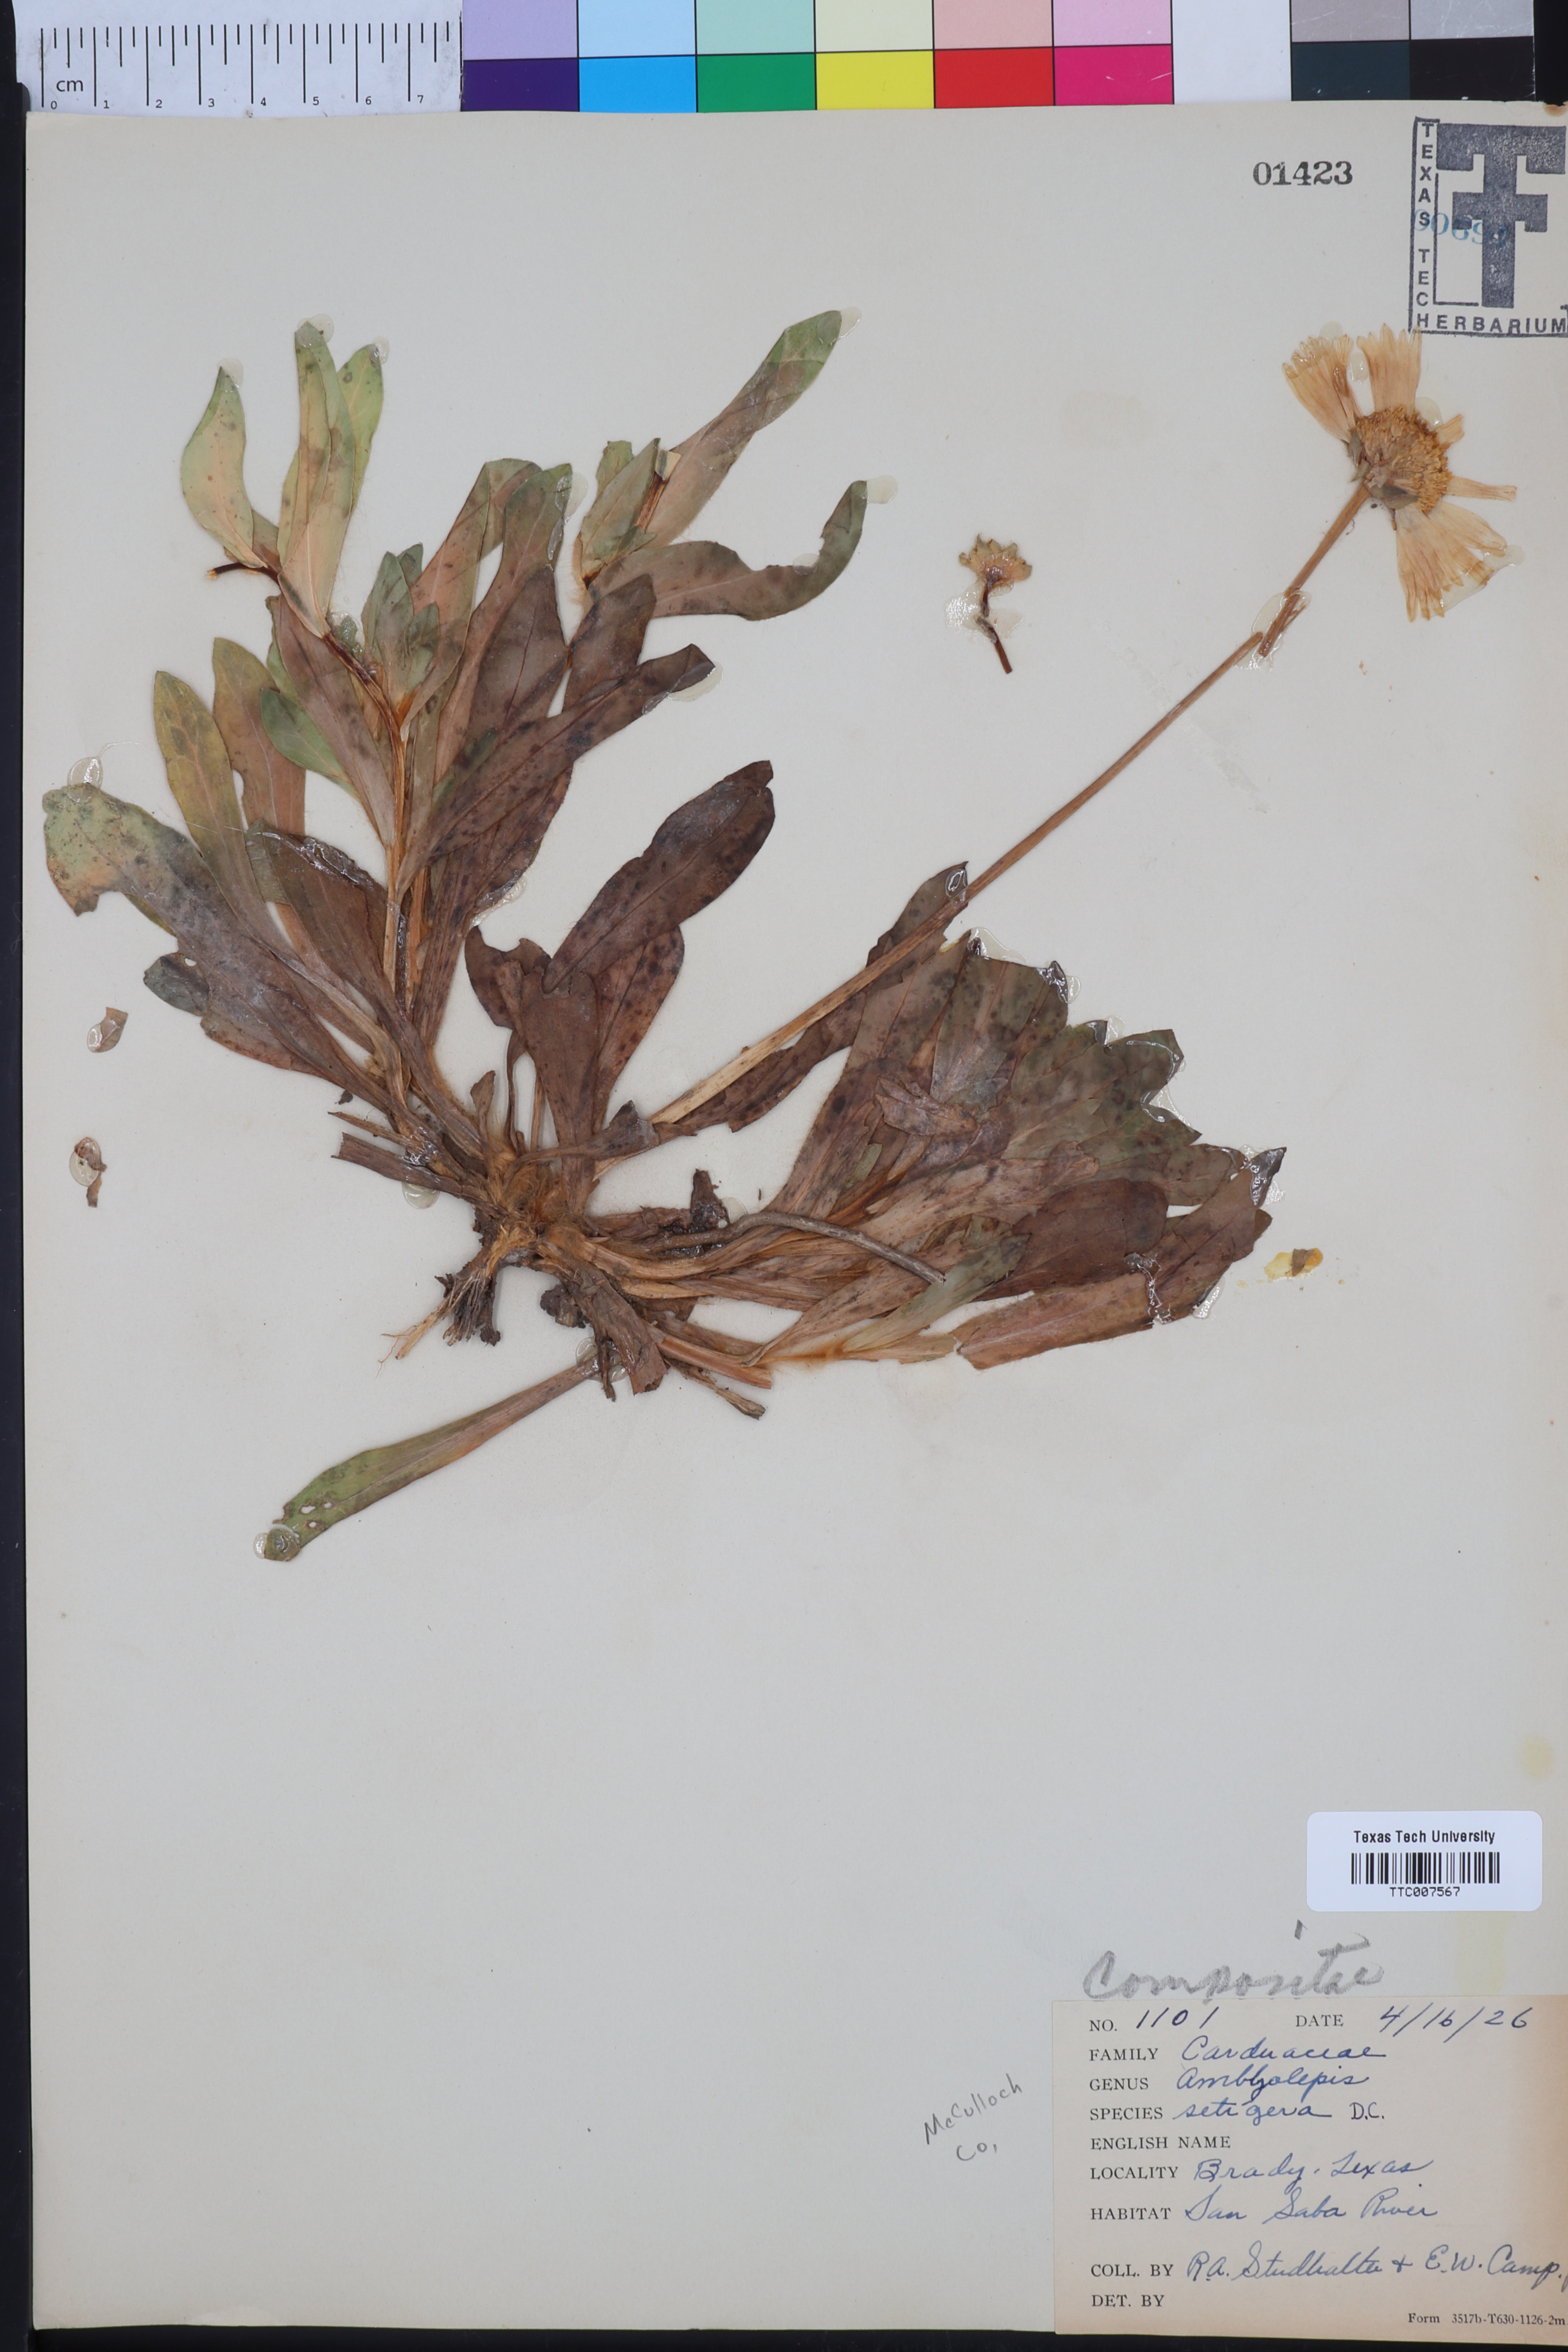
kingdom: Plantae
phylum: Tracheophyta
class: Magnoliopsida
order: Asterales
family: Asteraceae
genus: Amblyolepis
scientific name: Amblyolepis setigera
